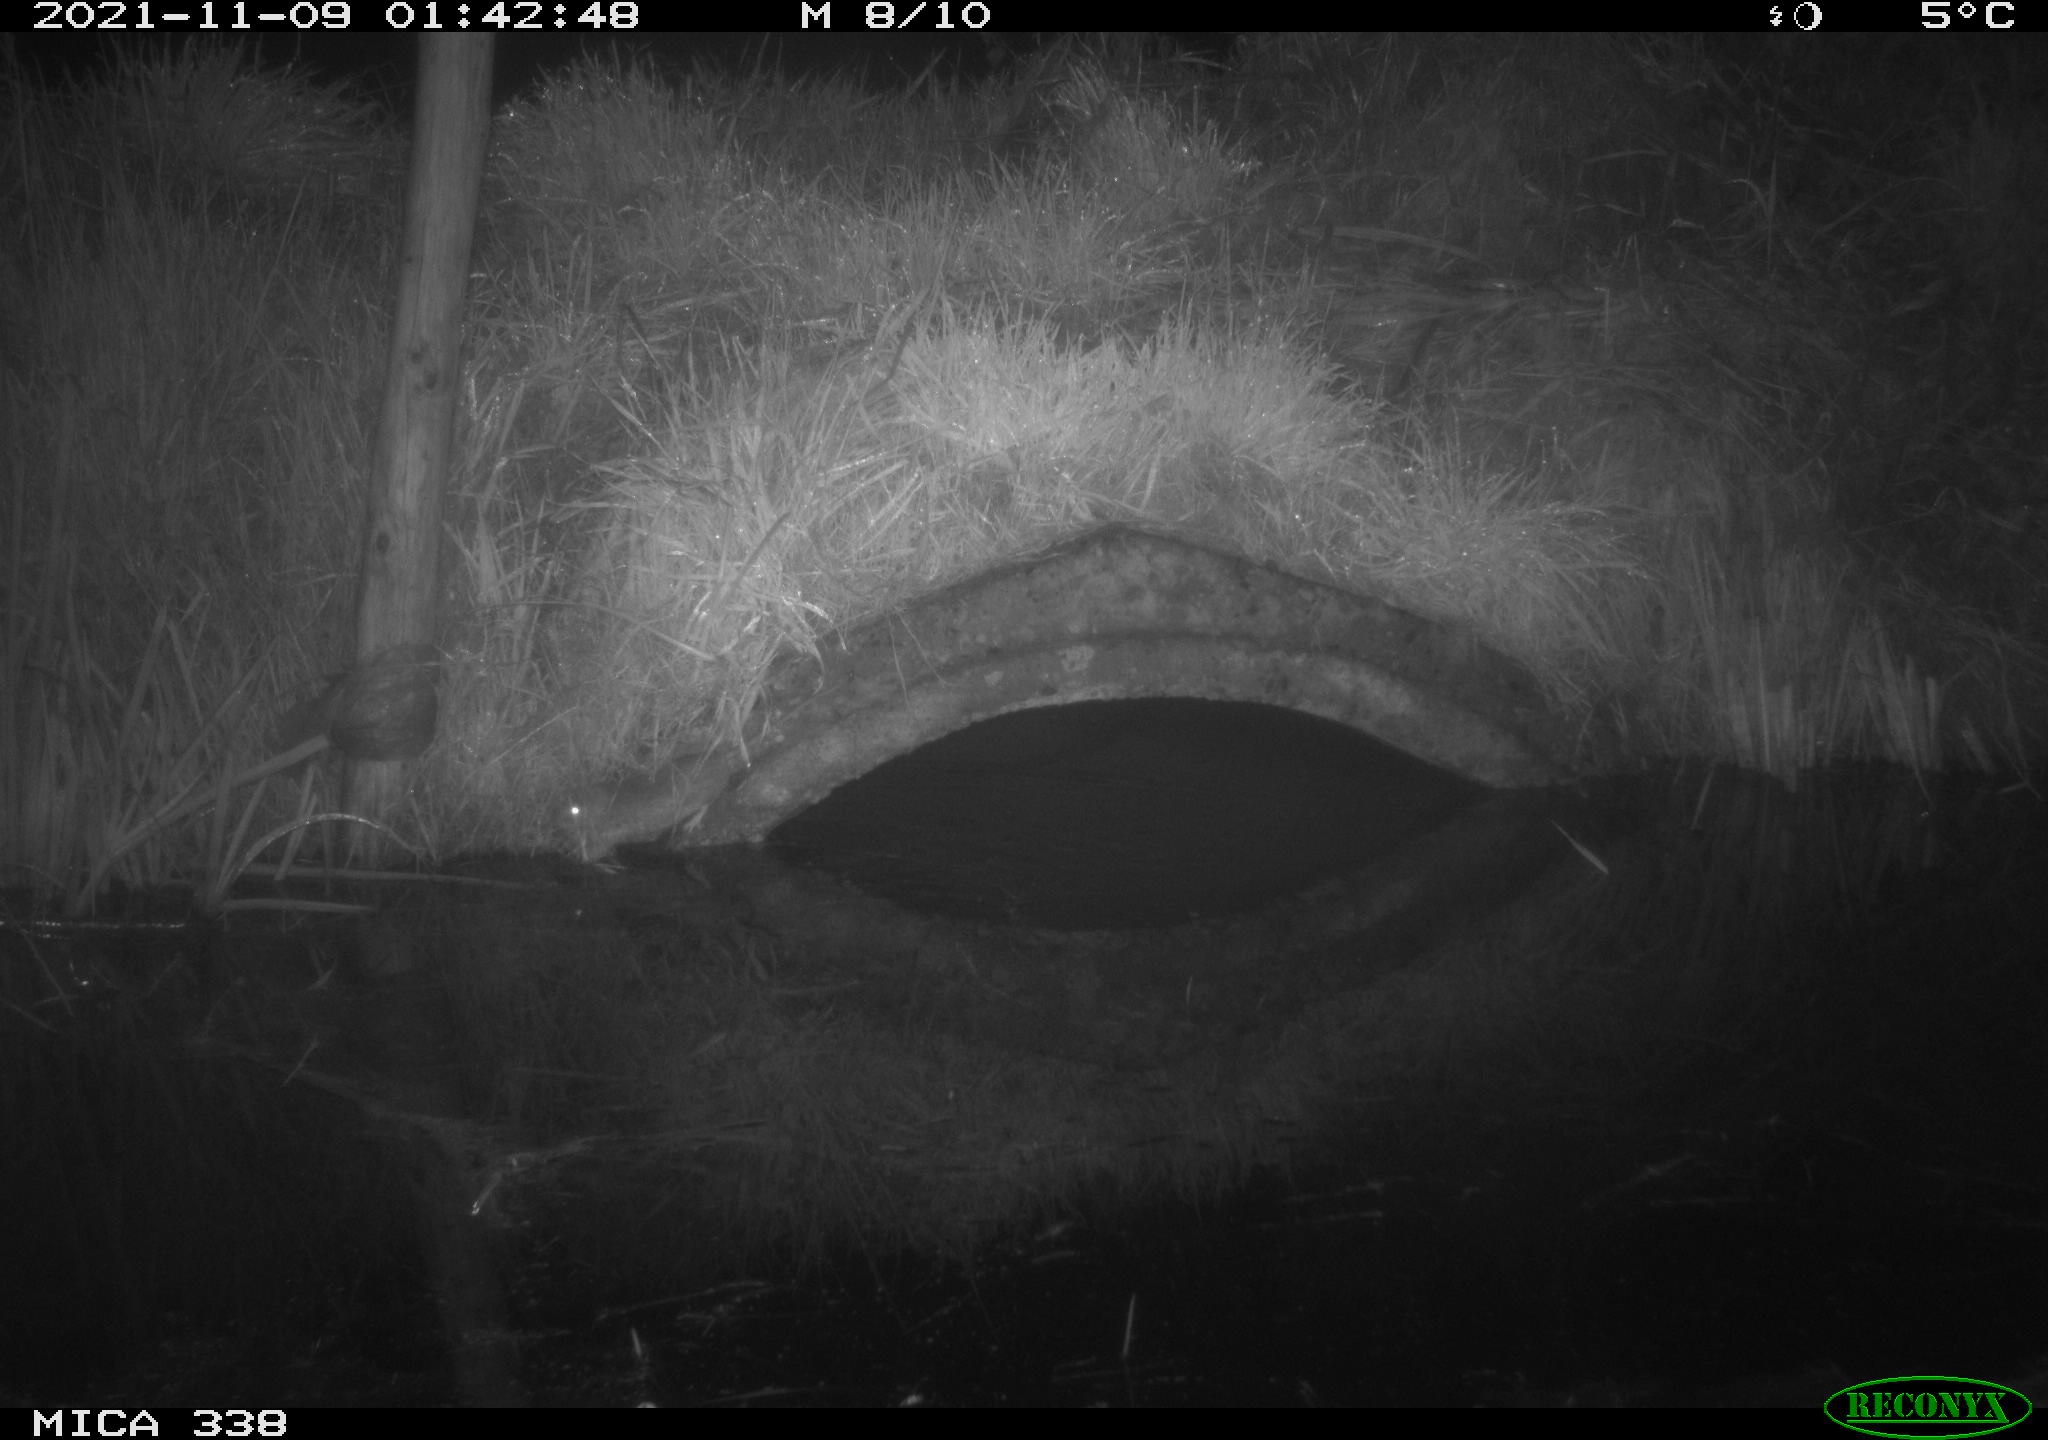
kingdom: Animalia
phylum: Chordata
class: Mammalia
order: Rodentia
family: Muridae
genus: Rattus
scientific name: Rattus norvegicus
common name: Brown rat
